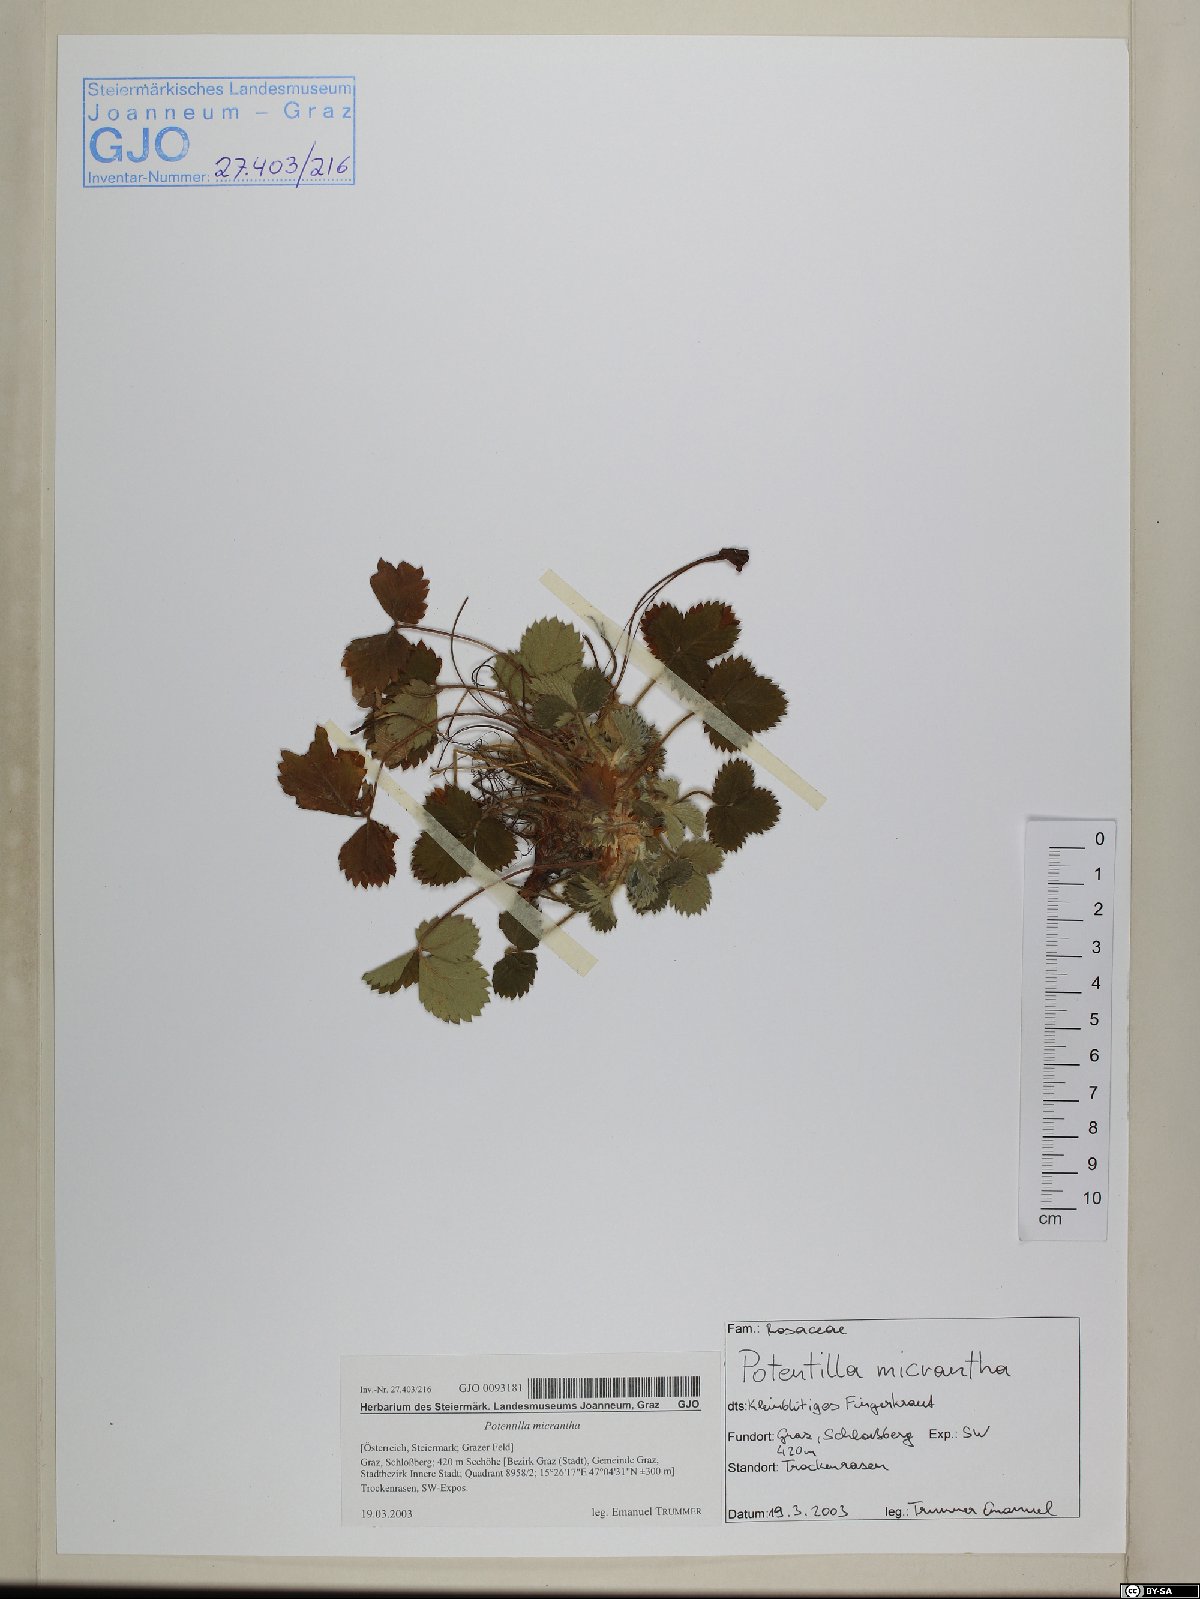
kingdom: Plantae
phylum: Tracheophyta
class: Magnoliopsida
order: Rosales
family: Rosaceae
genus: Potentilla
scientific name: Potentilla micrantha
